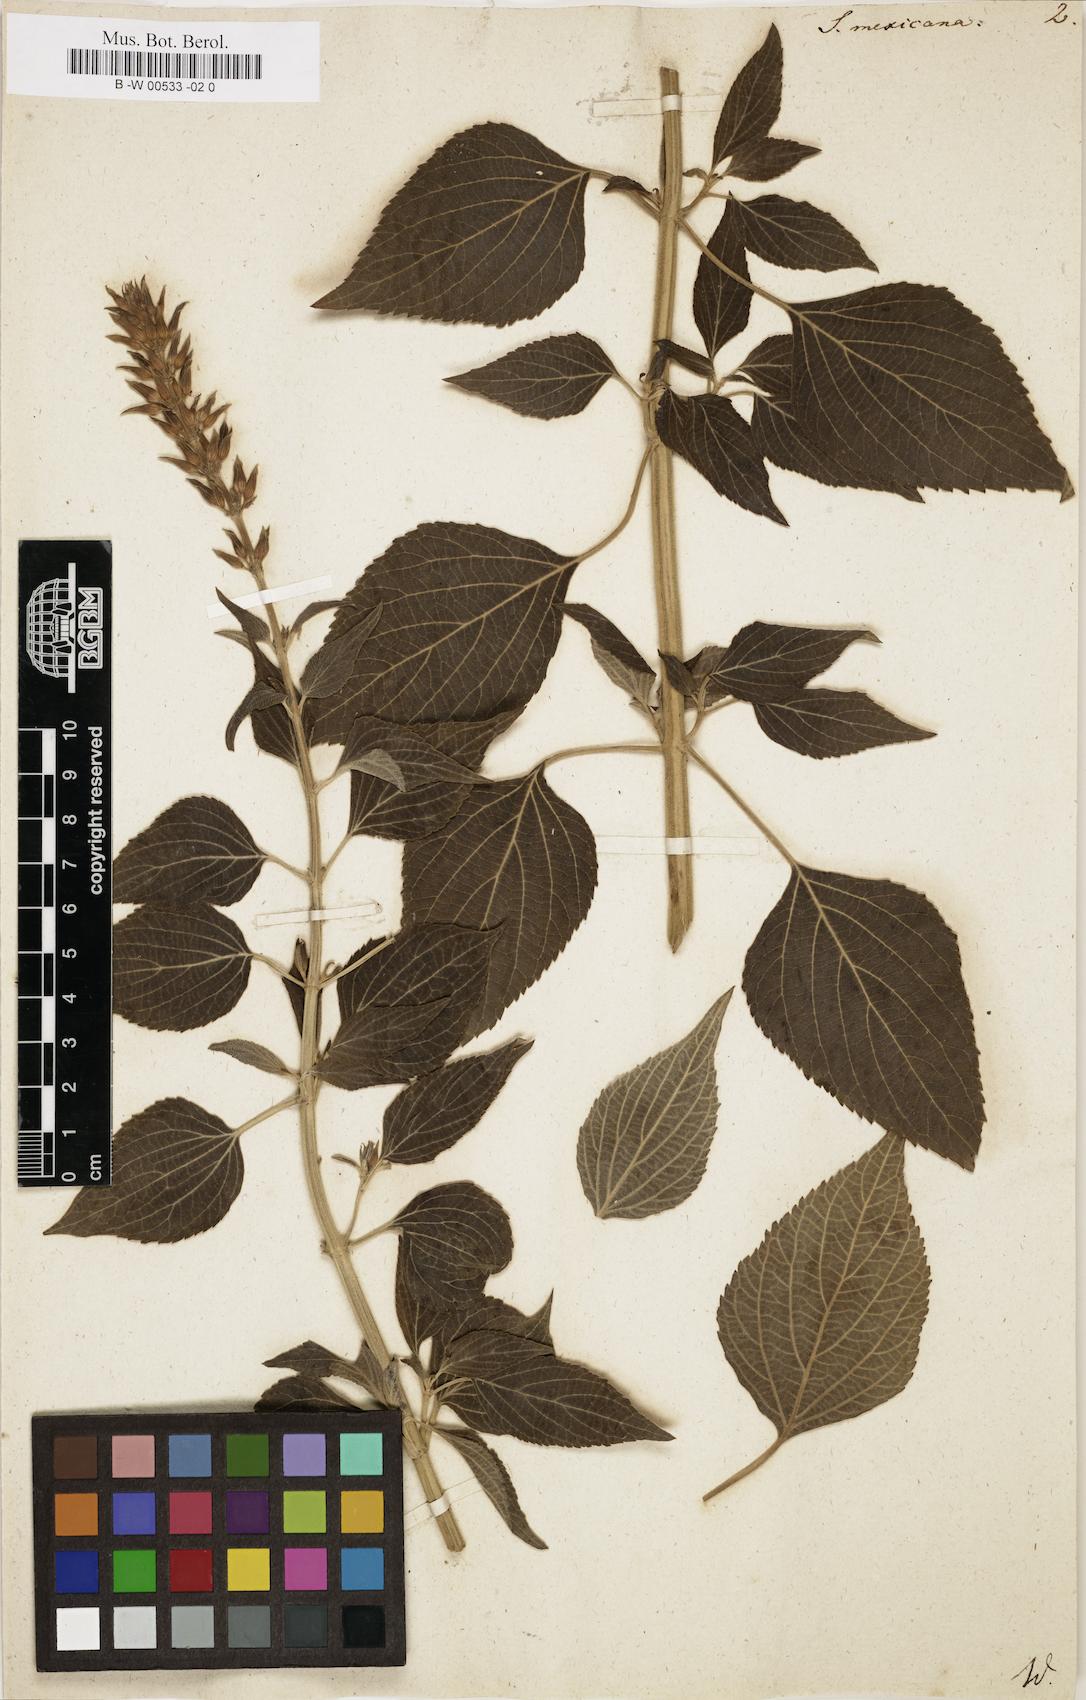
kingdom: Plantae
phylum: Tracheophyta
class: Magnoliopsida
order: Lamiales
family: Lamiaceae
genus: Salvia
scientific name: Salvia mexicana
